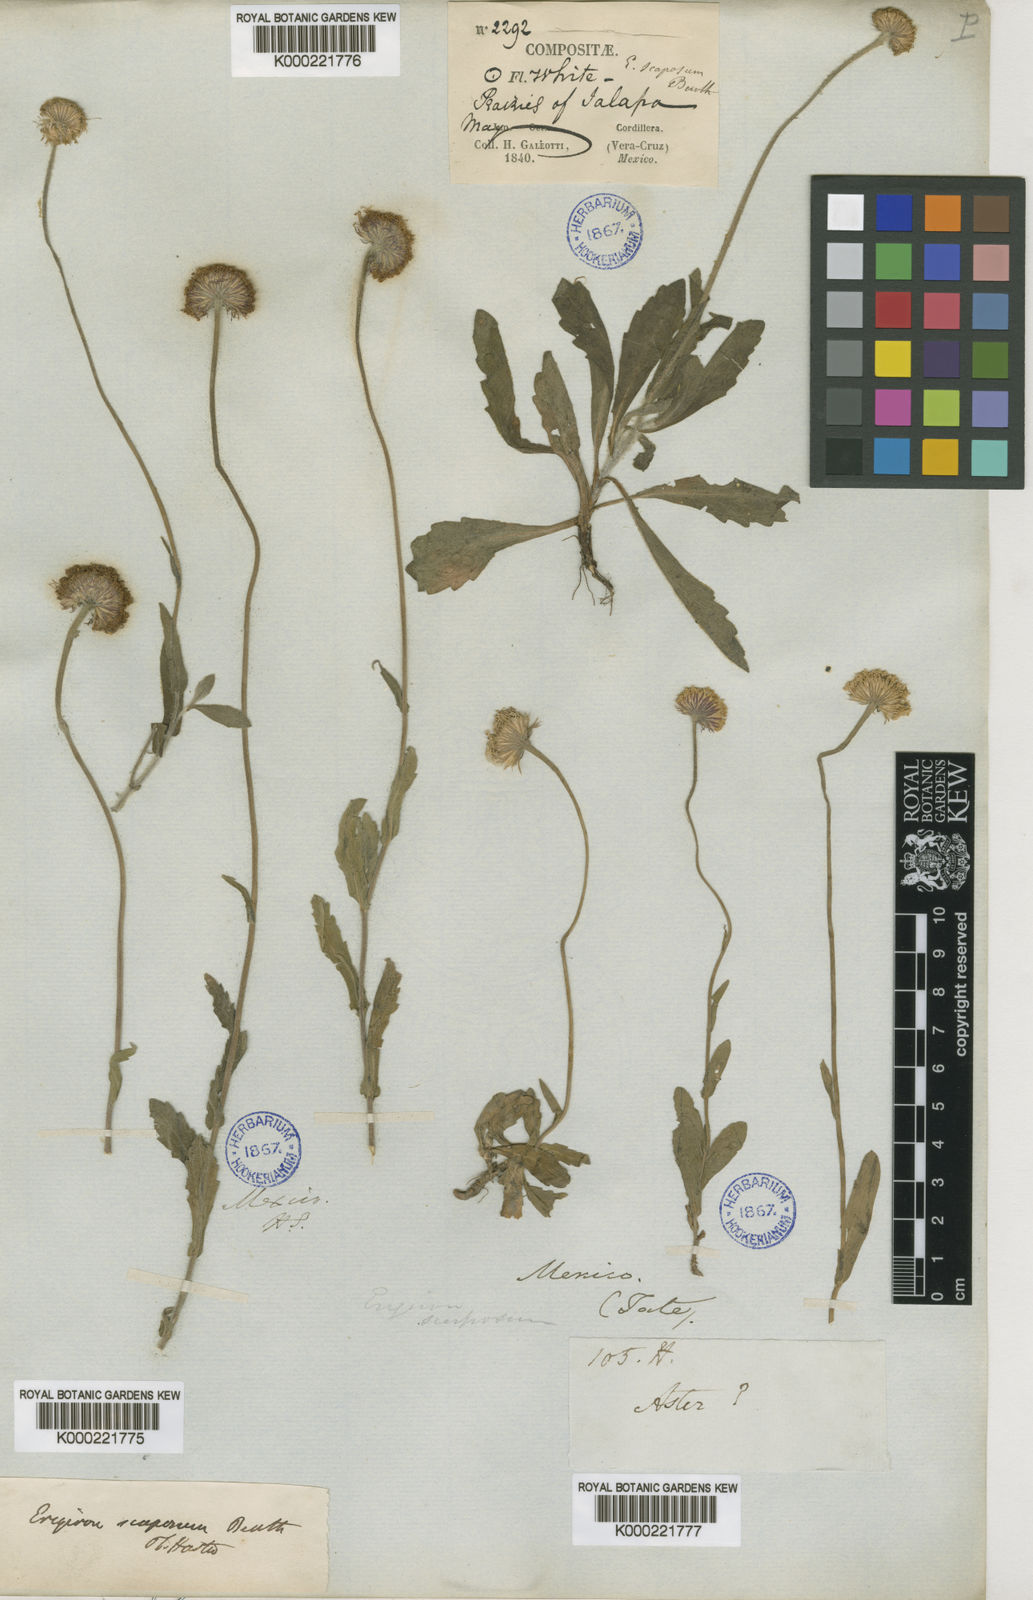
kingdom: Plantae
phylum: Tracheophyta
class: Magnoliopsida
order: Asterales
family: Asteraceae
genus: Erigeron
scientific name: Erigeron longipes
